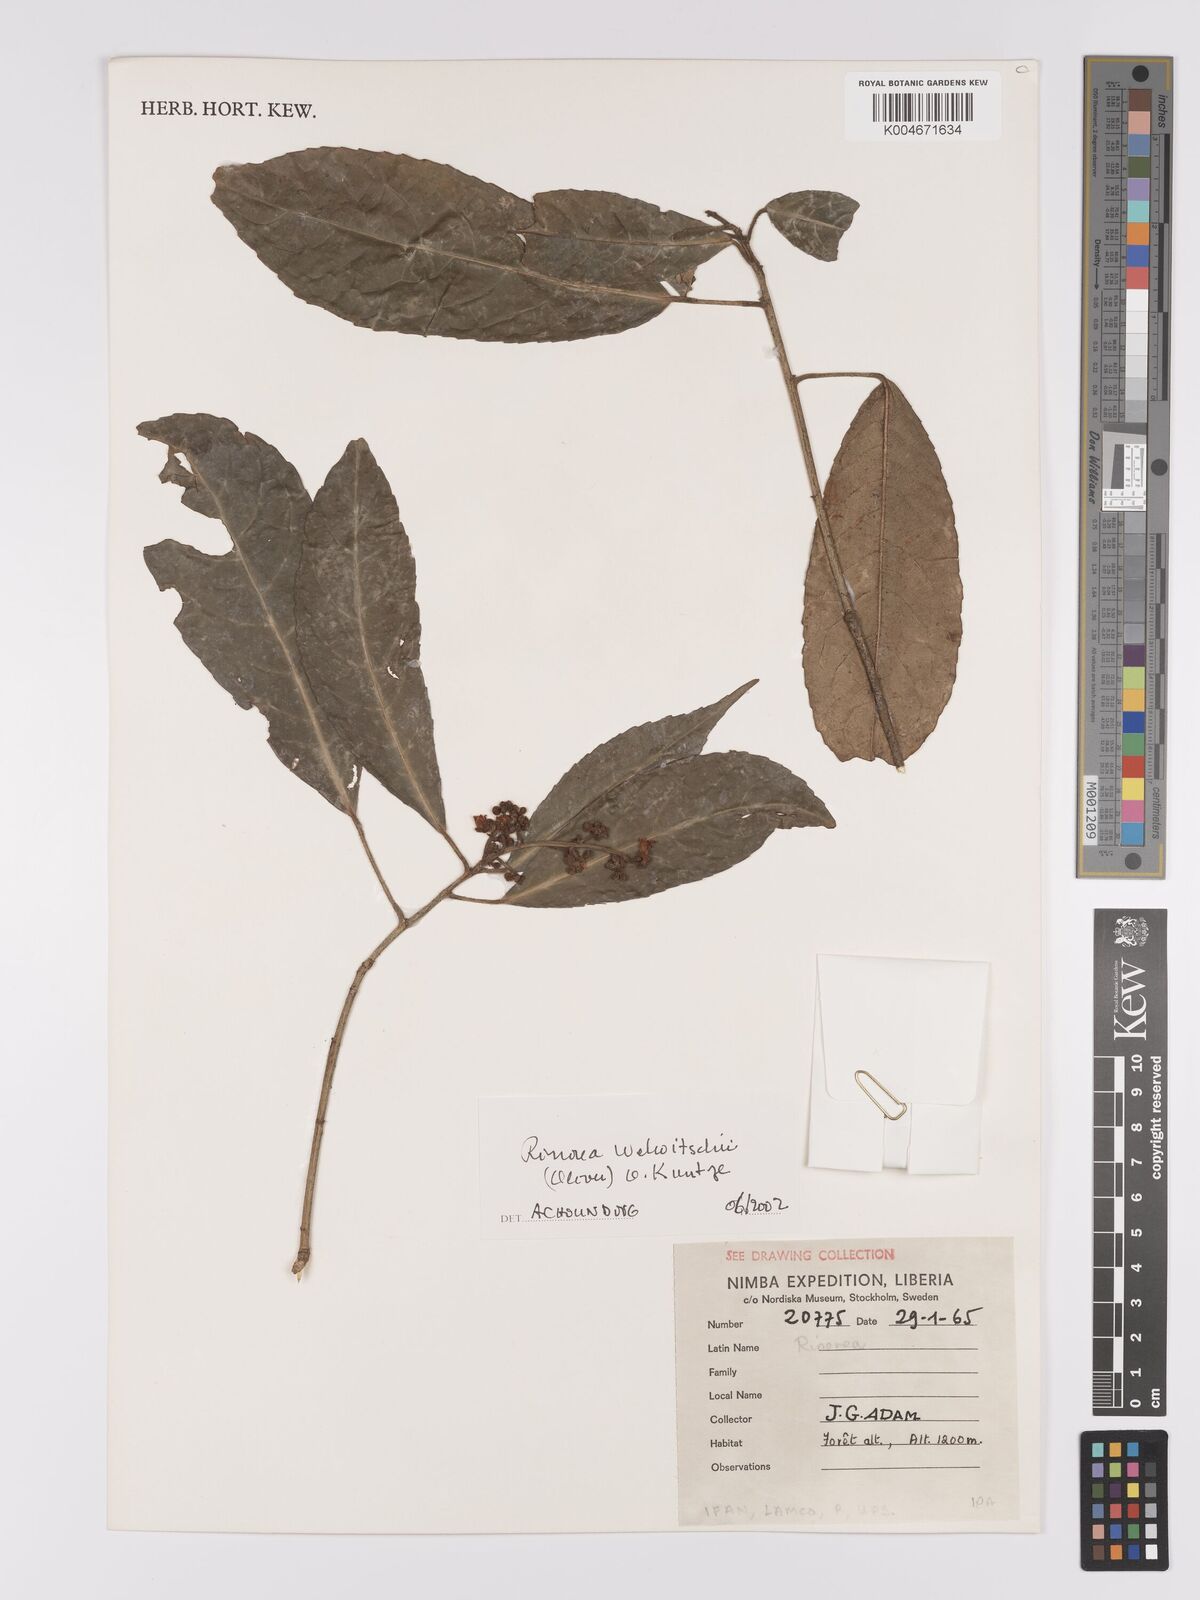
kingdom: Plantae
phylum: Tracheophyta
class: Magnoliopsida
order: Malpighiales
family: Violaceae
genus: Rinorea
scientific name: Rinorea welwitschii
